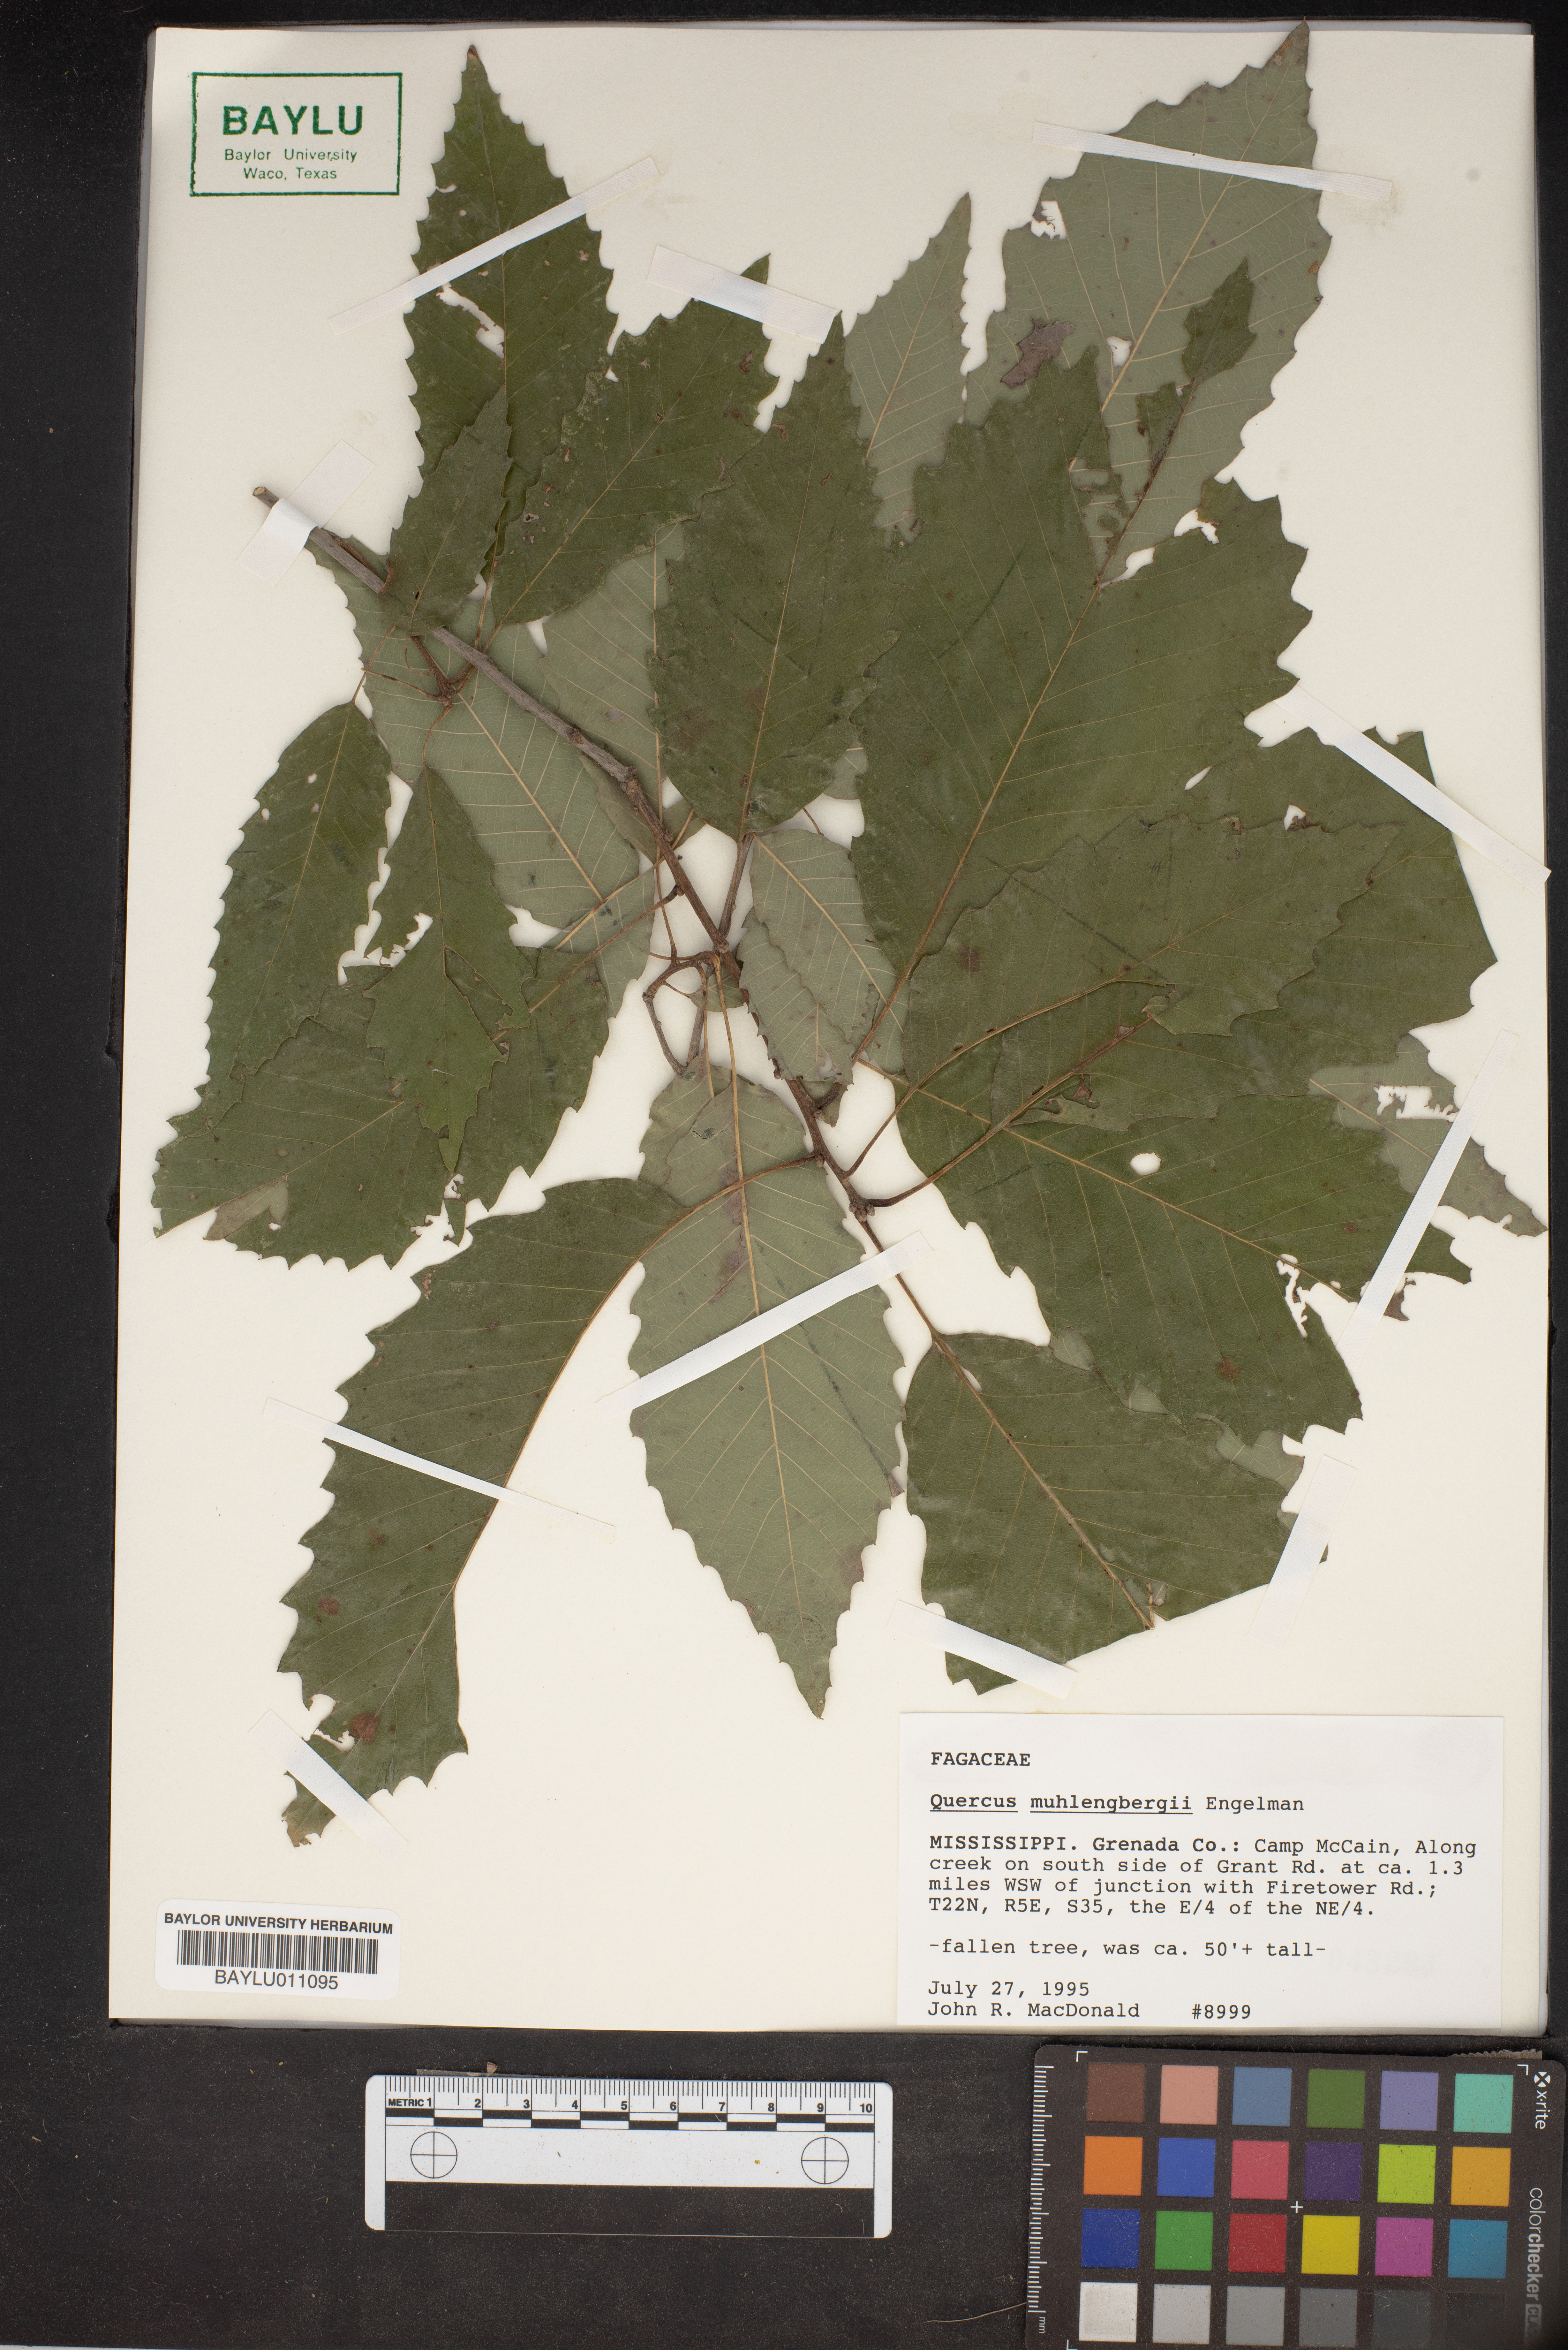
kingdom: Plantae
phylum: Tracheophyta
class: Magnoliopsida
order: Fagales
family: Fagaceae
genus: Quercus
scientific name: Quercus muehlenbergii
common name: Chinkapin oak
